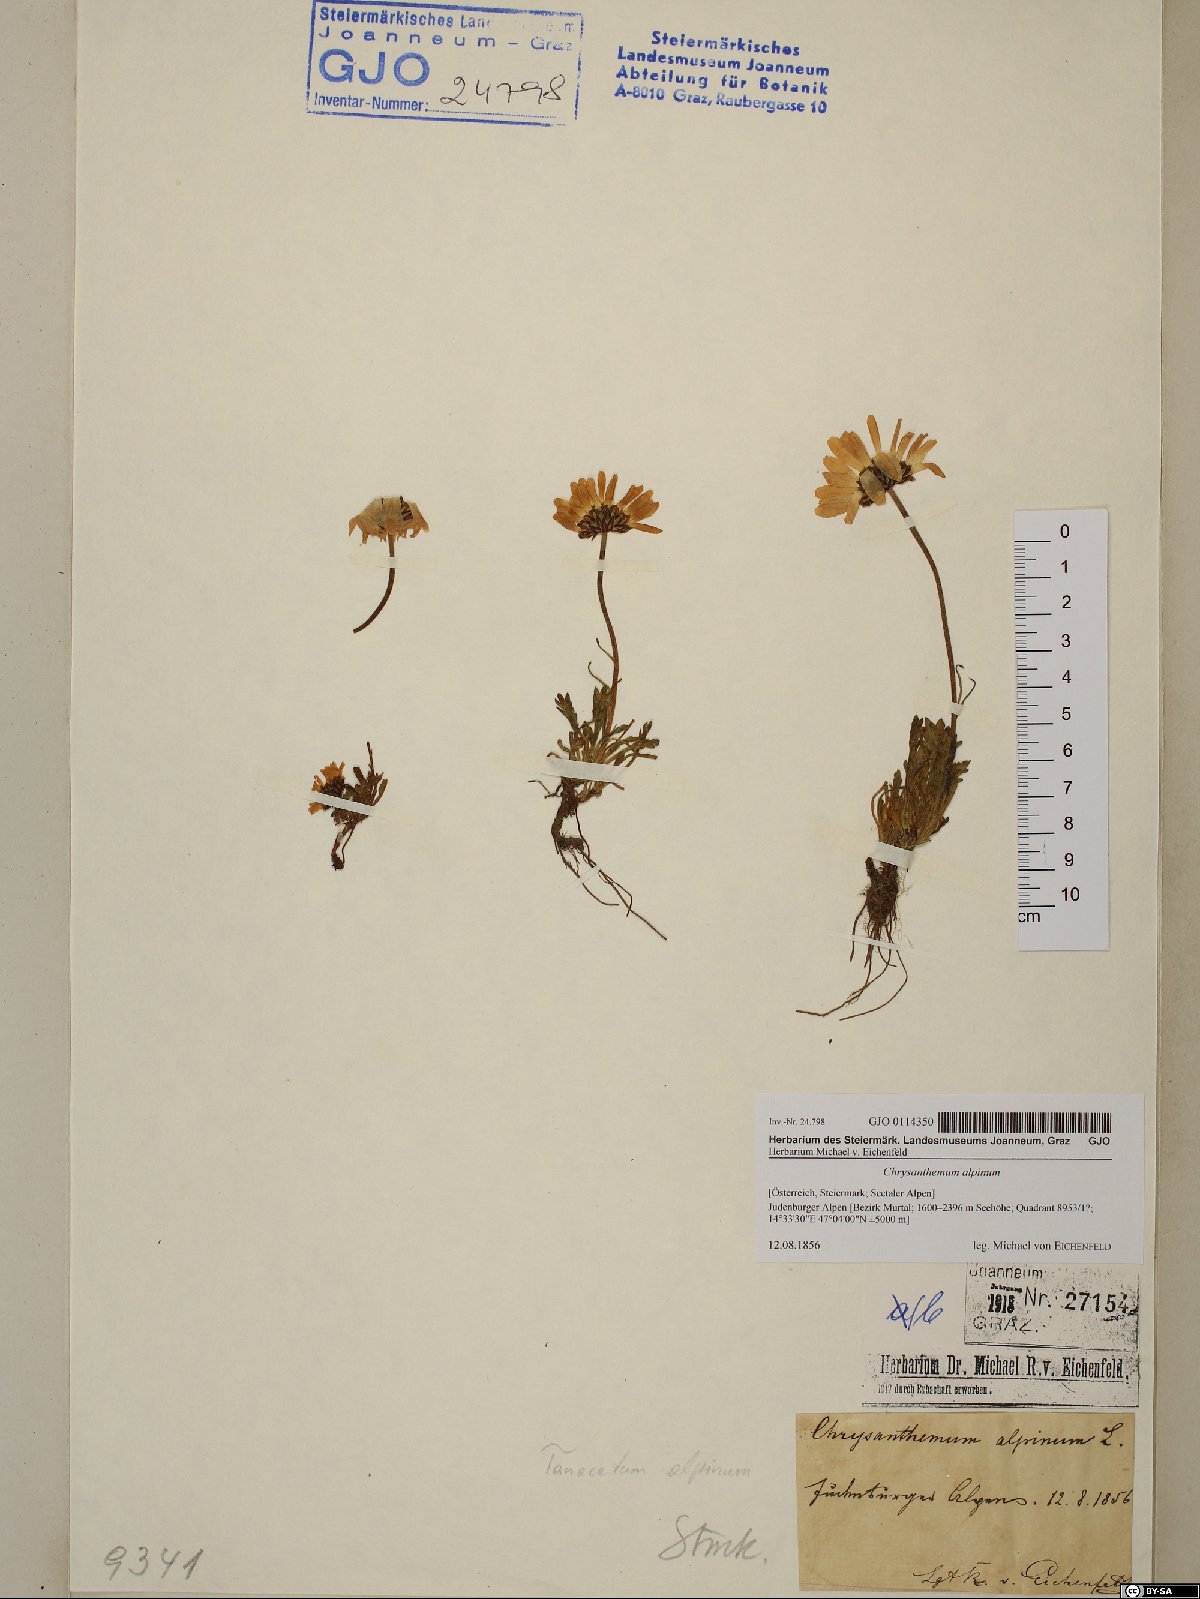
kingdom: Plantae
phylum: Tracheophyta
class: Magnoliopsida
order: Asterales
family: Asteraceae
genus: Leucanthemopsis
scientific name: Leucanthemopsis alpina
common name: Alpine moon daisy
